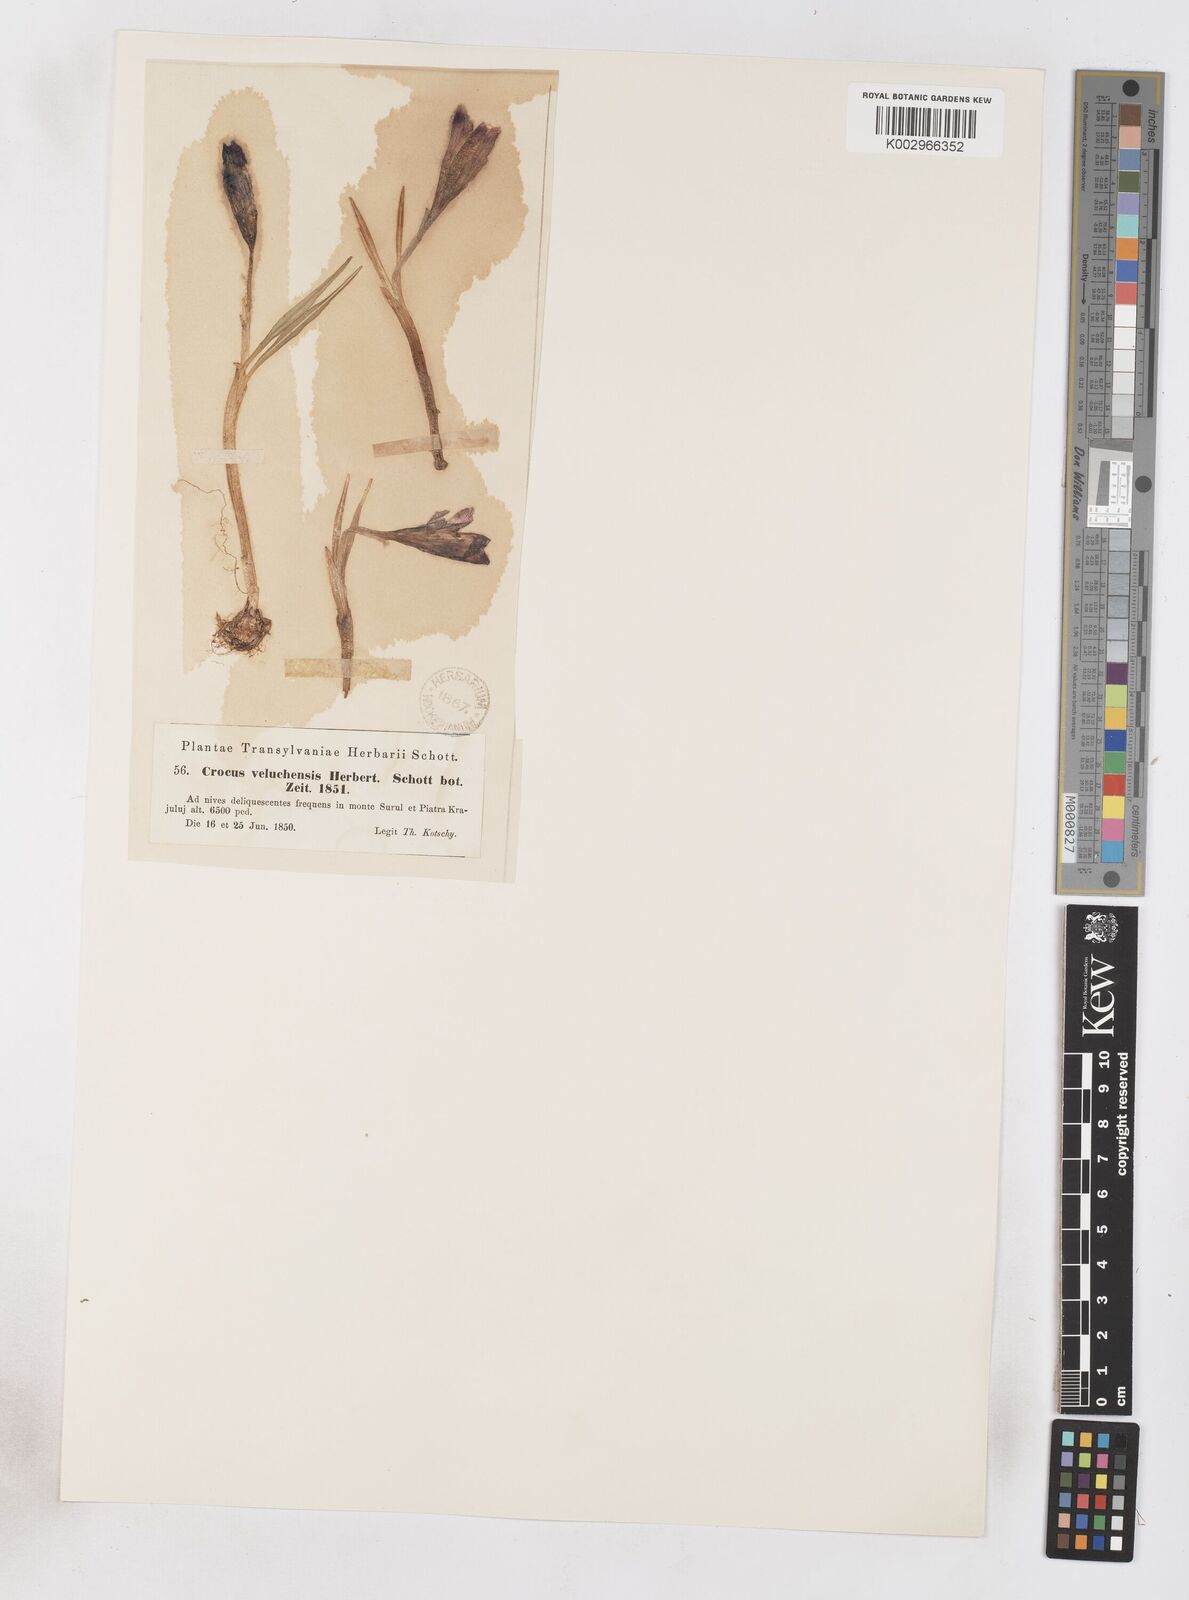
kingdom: Plantae
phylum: Tracheophyta
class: Liliopsida
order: Asparagales
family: Iridaceae
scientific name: Iridaceae
